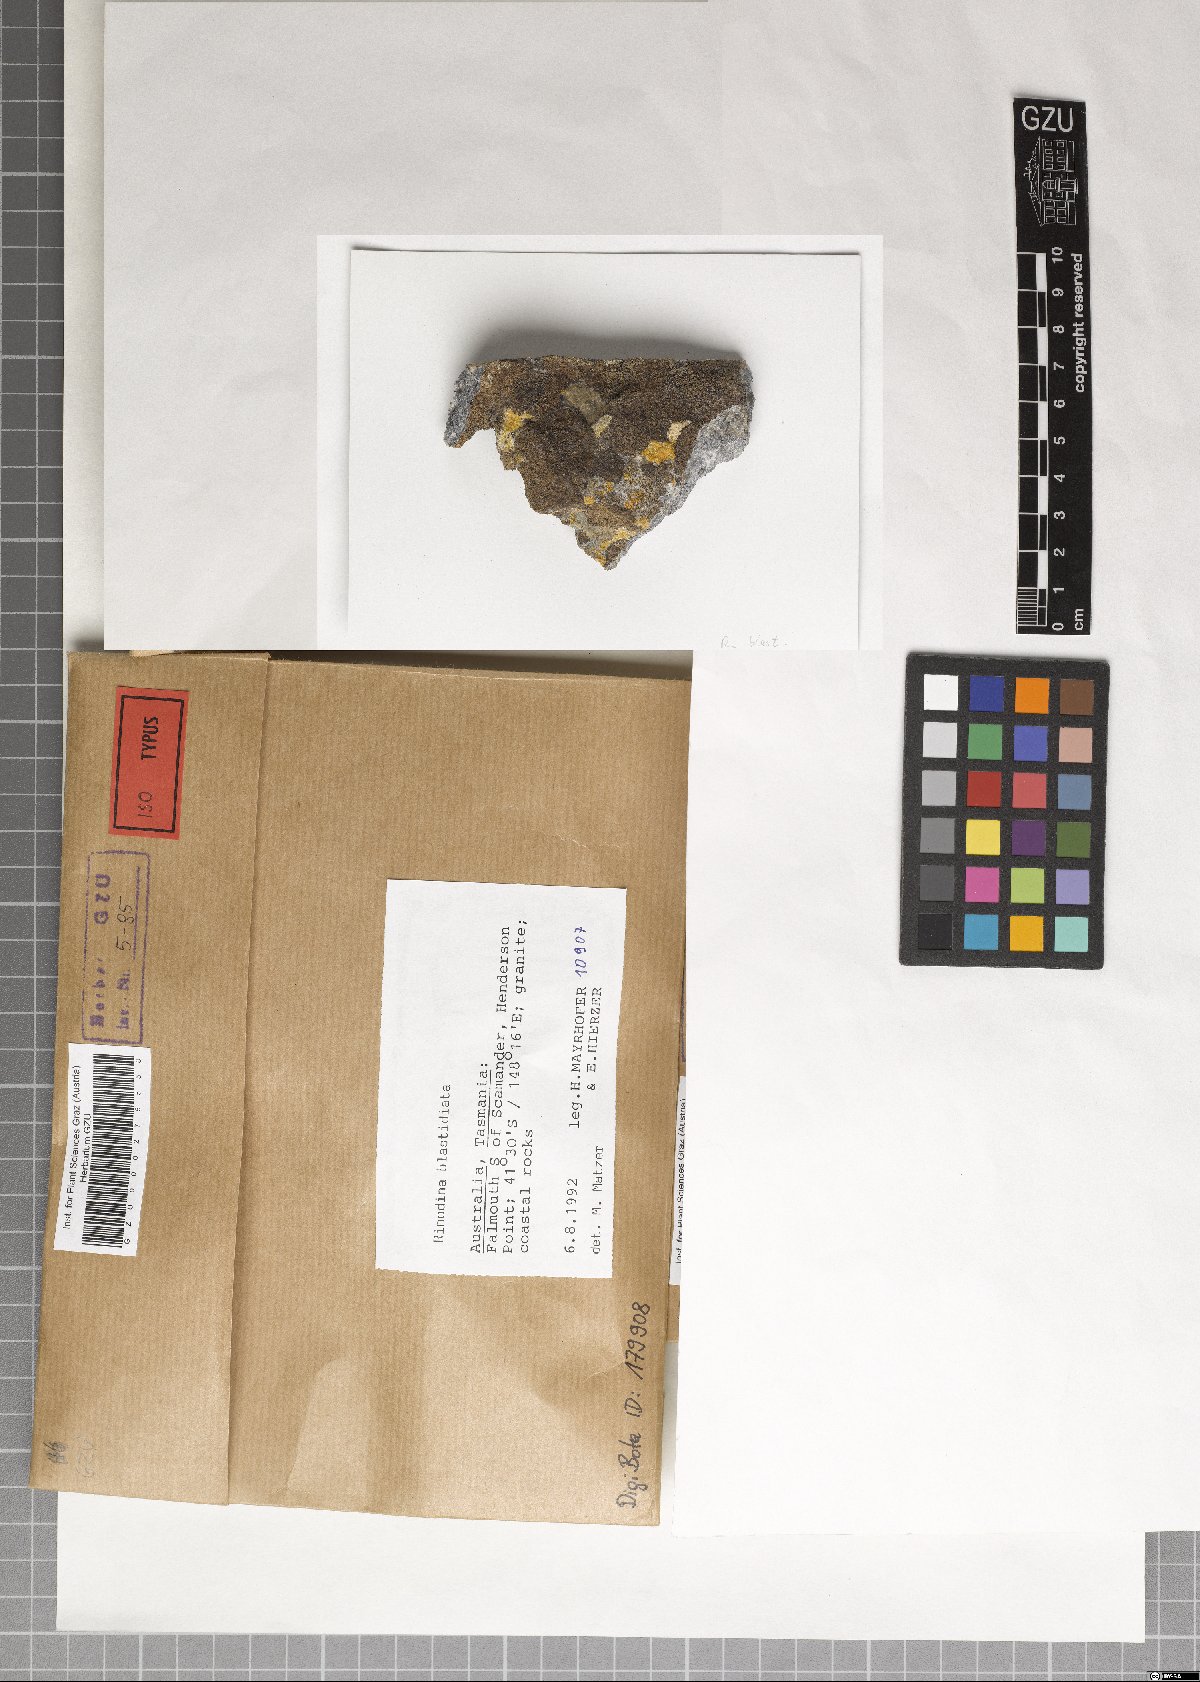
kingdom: Fungi
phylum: Ascomycota
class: Lecanoromycetes
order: Caliciales
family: Physciaceae
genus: Rinodina
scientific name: Rinodina blastidiata
